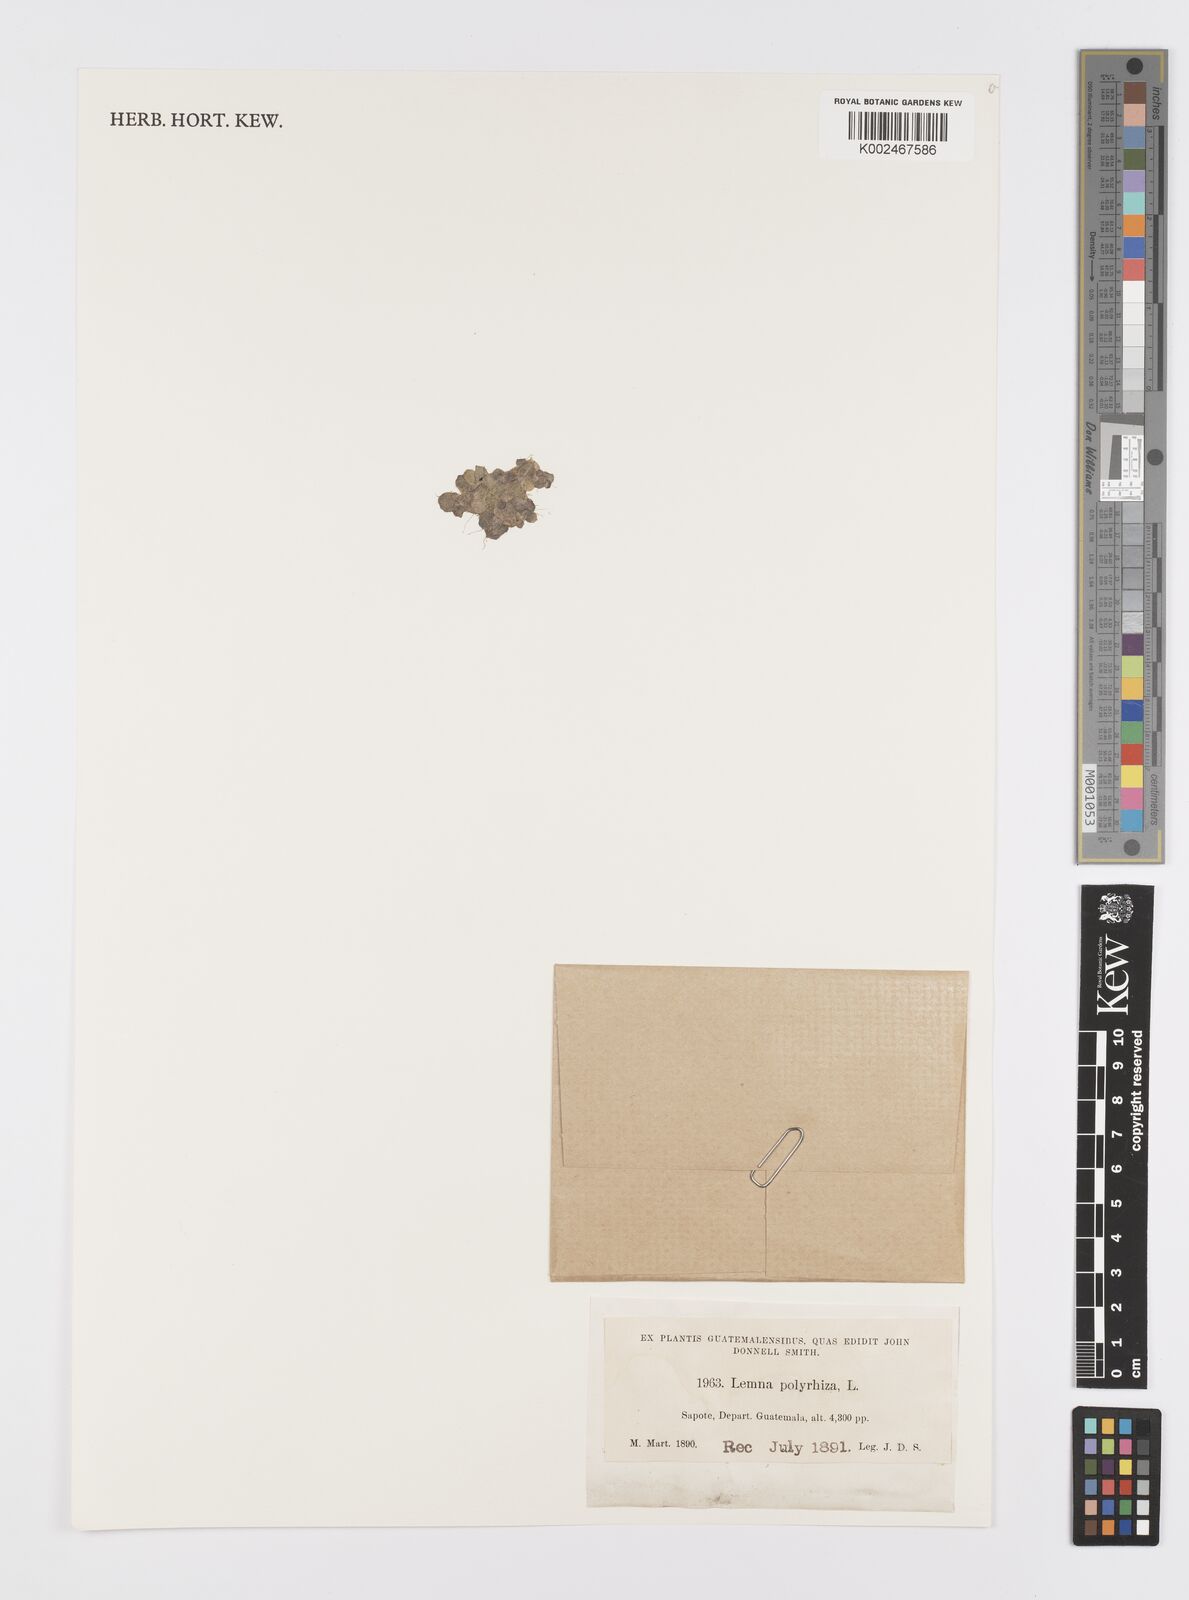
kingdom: Plantae
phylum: Tracheophyta
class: Liliopsida
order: Alismatales
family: Araceae
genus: Spirodela
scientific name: Spirodela polyrhiza
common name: Great duckweed
